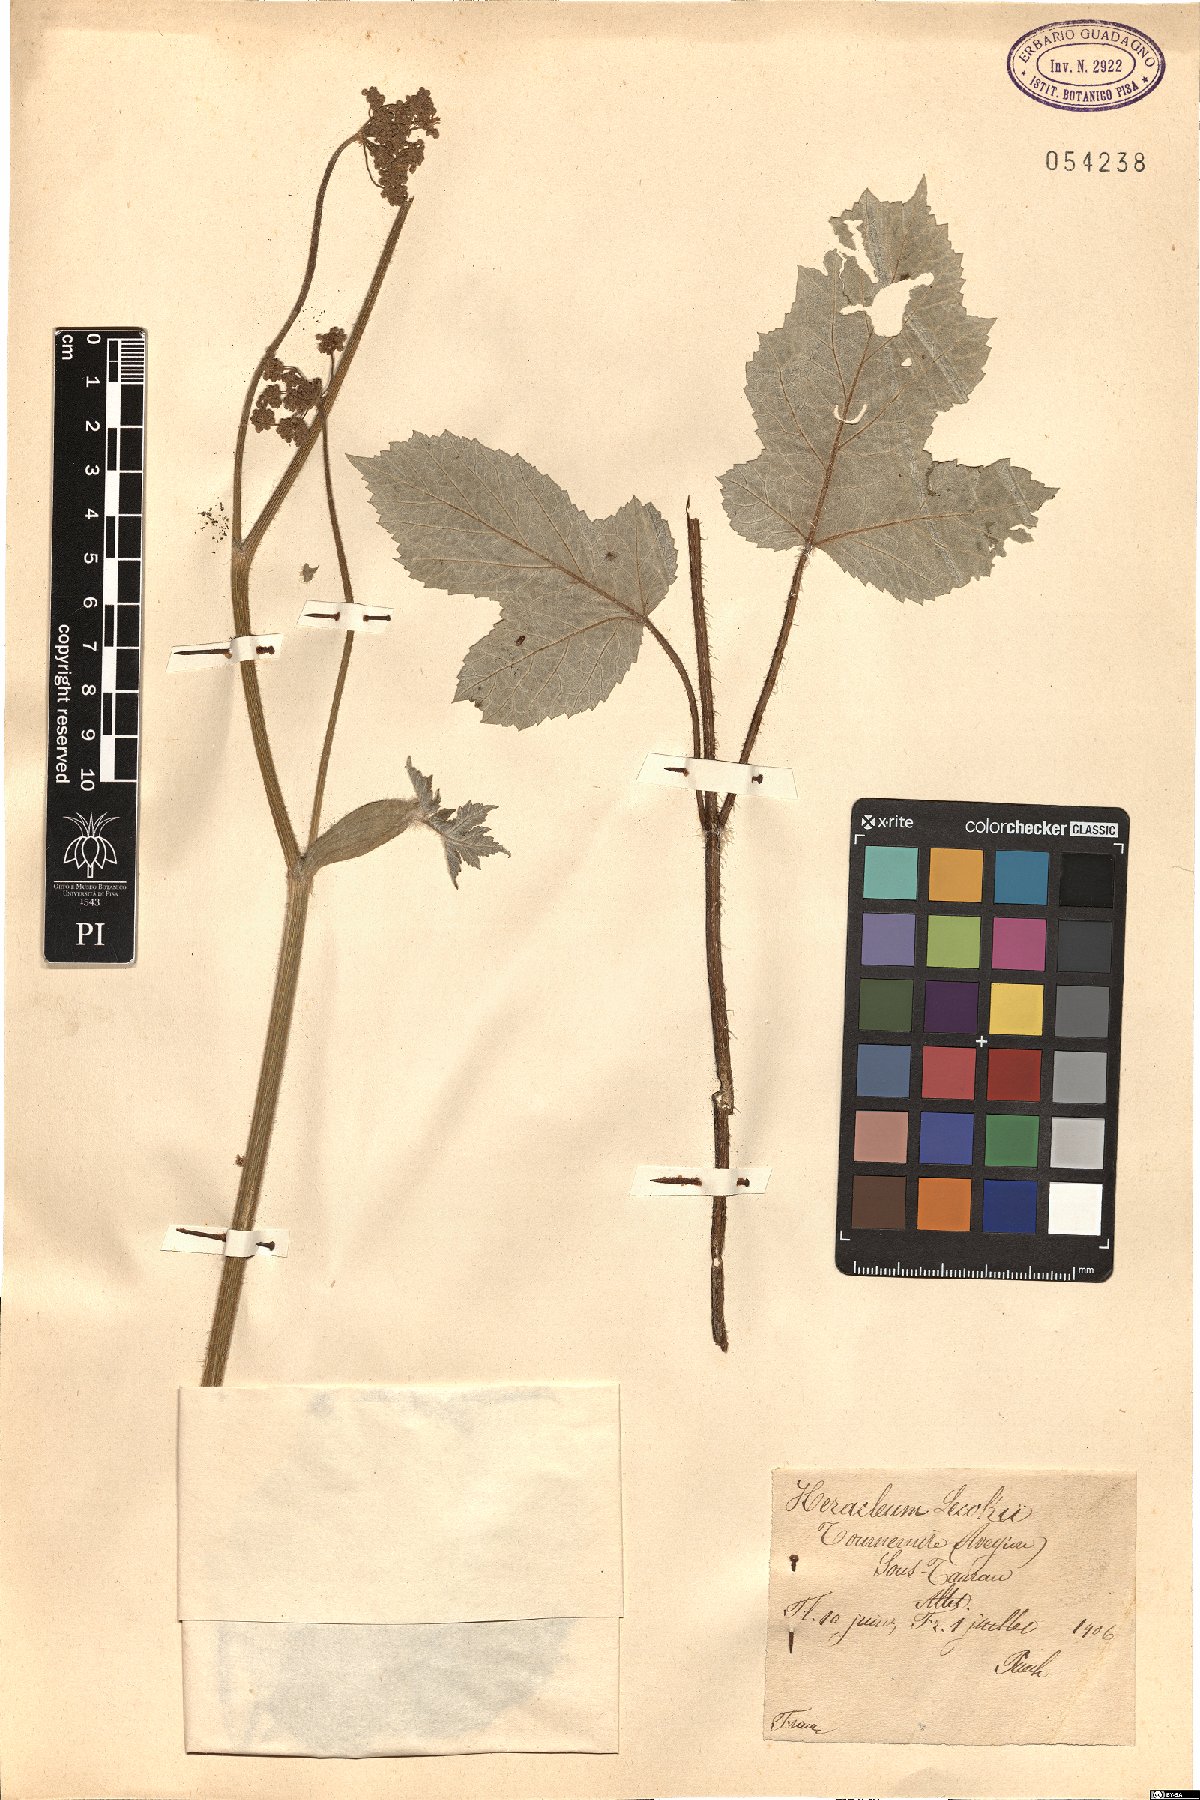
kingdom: Plantae
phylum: Tracheophyta
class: Magnoliopsida
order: Apiales
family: Apiaceae
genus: Heracleum
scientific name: Heracleum sphondylium
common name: Hogweed
